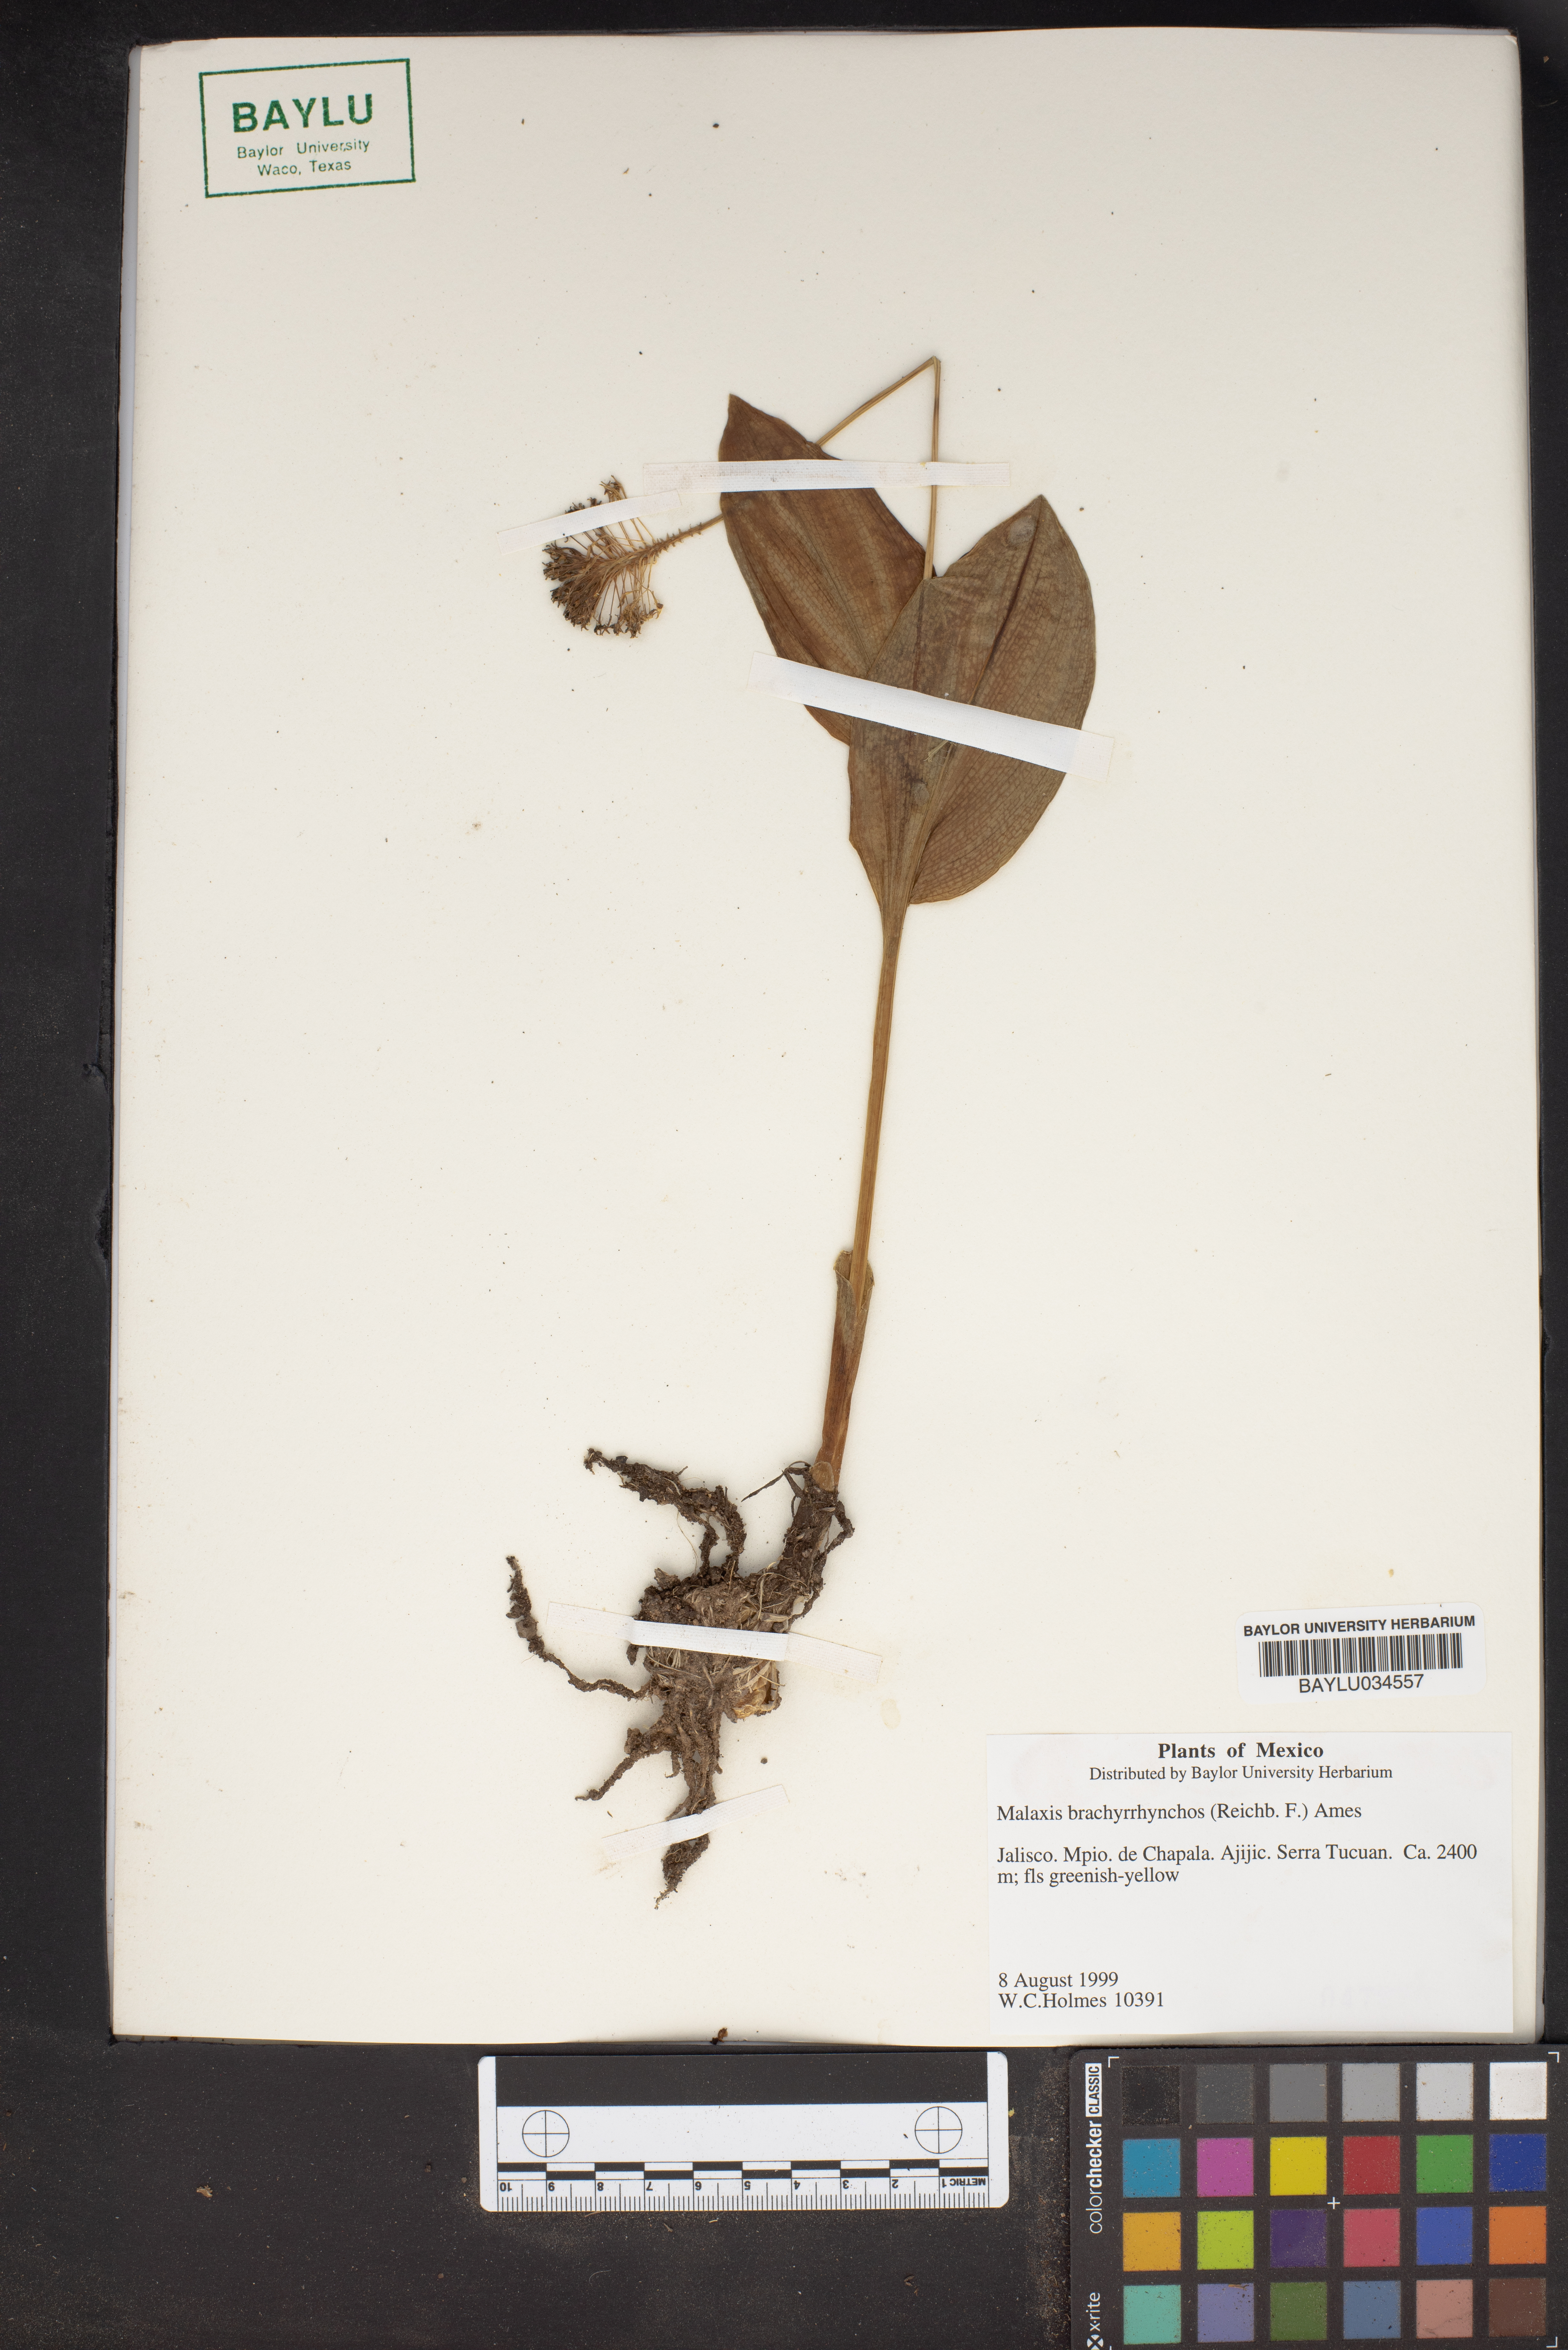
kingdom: Plantae
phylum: Tracheophyta
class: Liliopsida
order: Asparagales
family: Orchidaceae
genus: Malaxis
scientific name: Malaxis brachyrrhynchos
